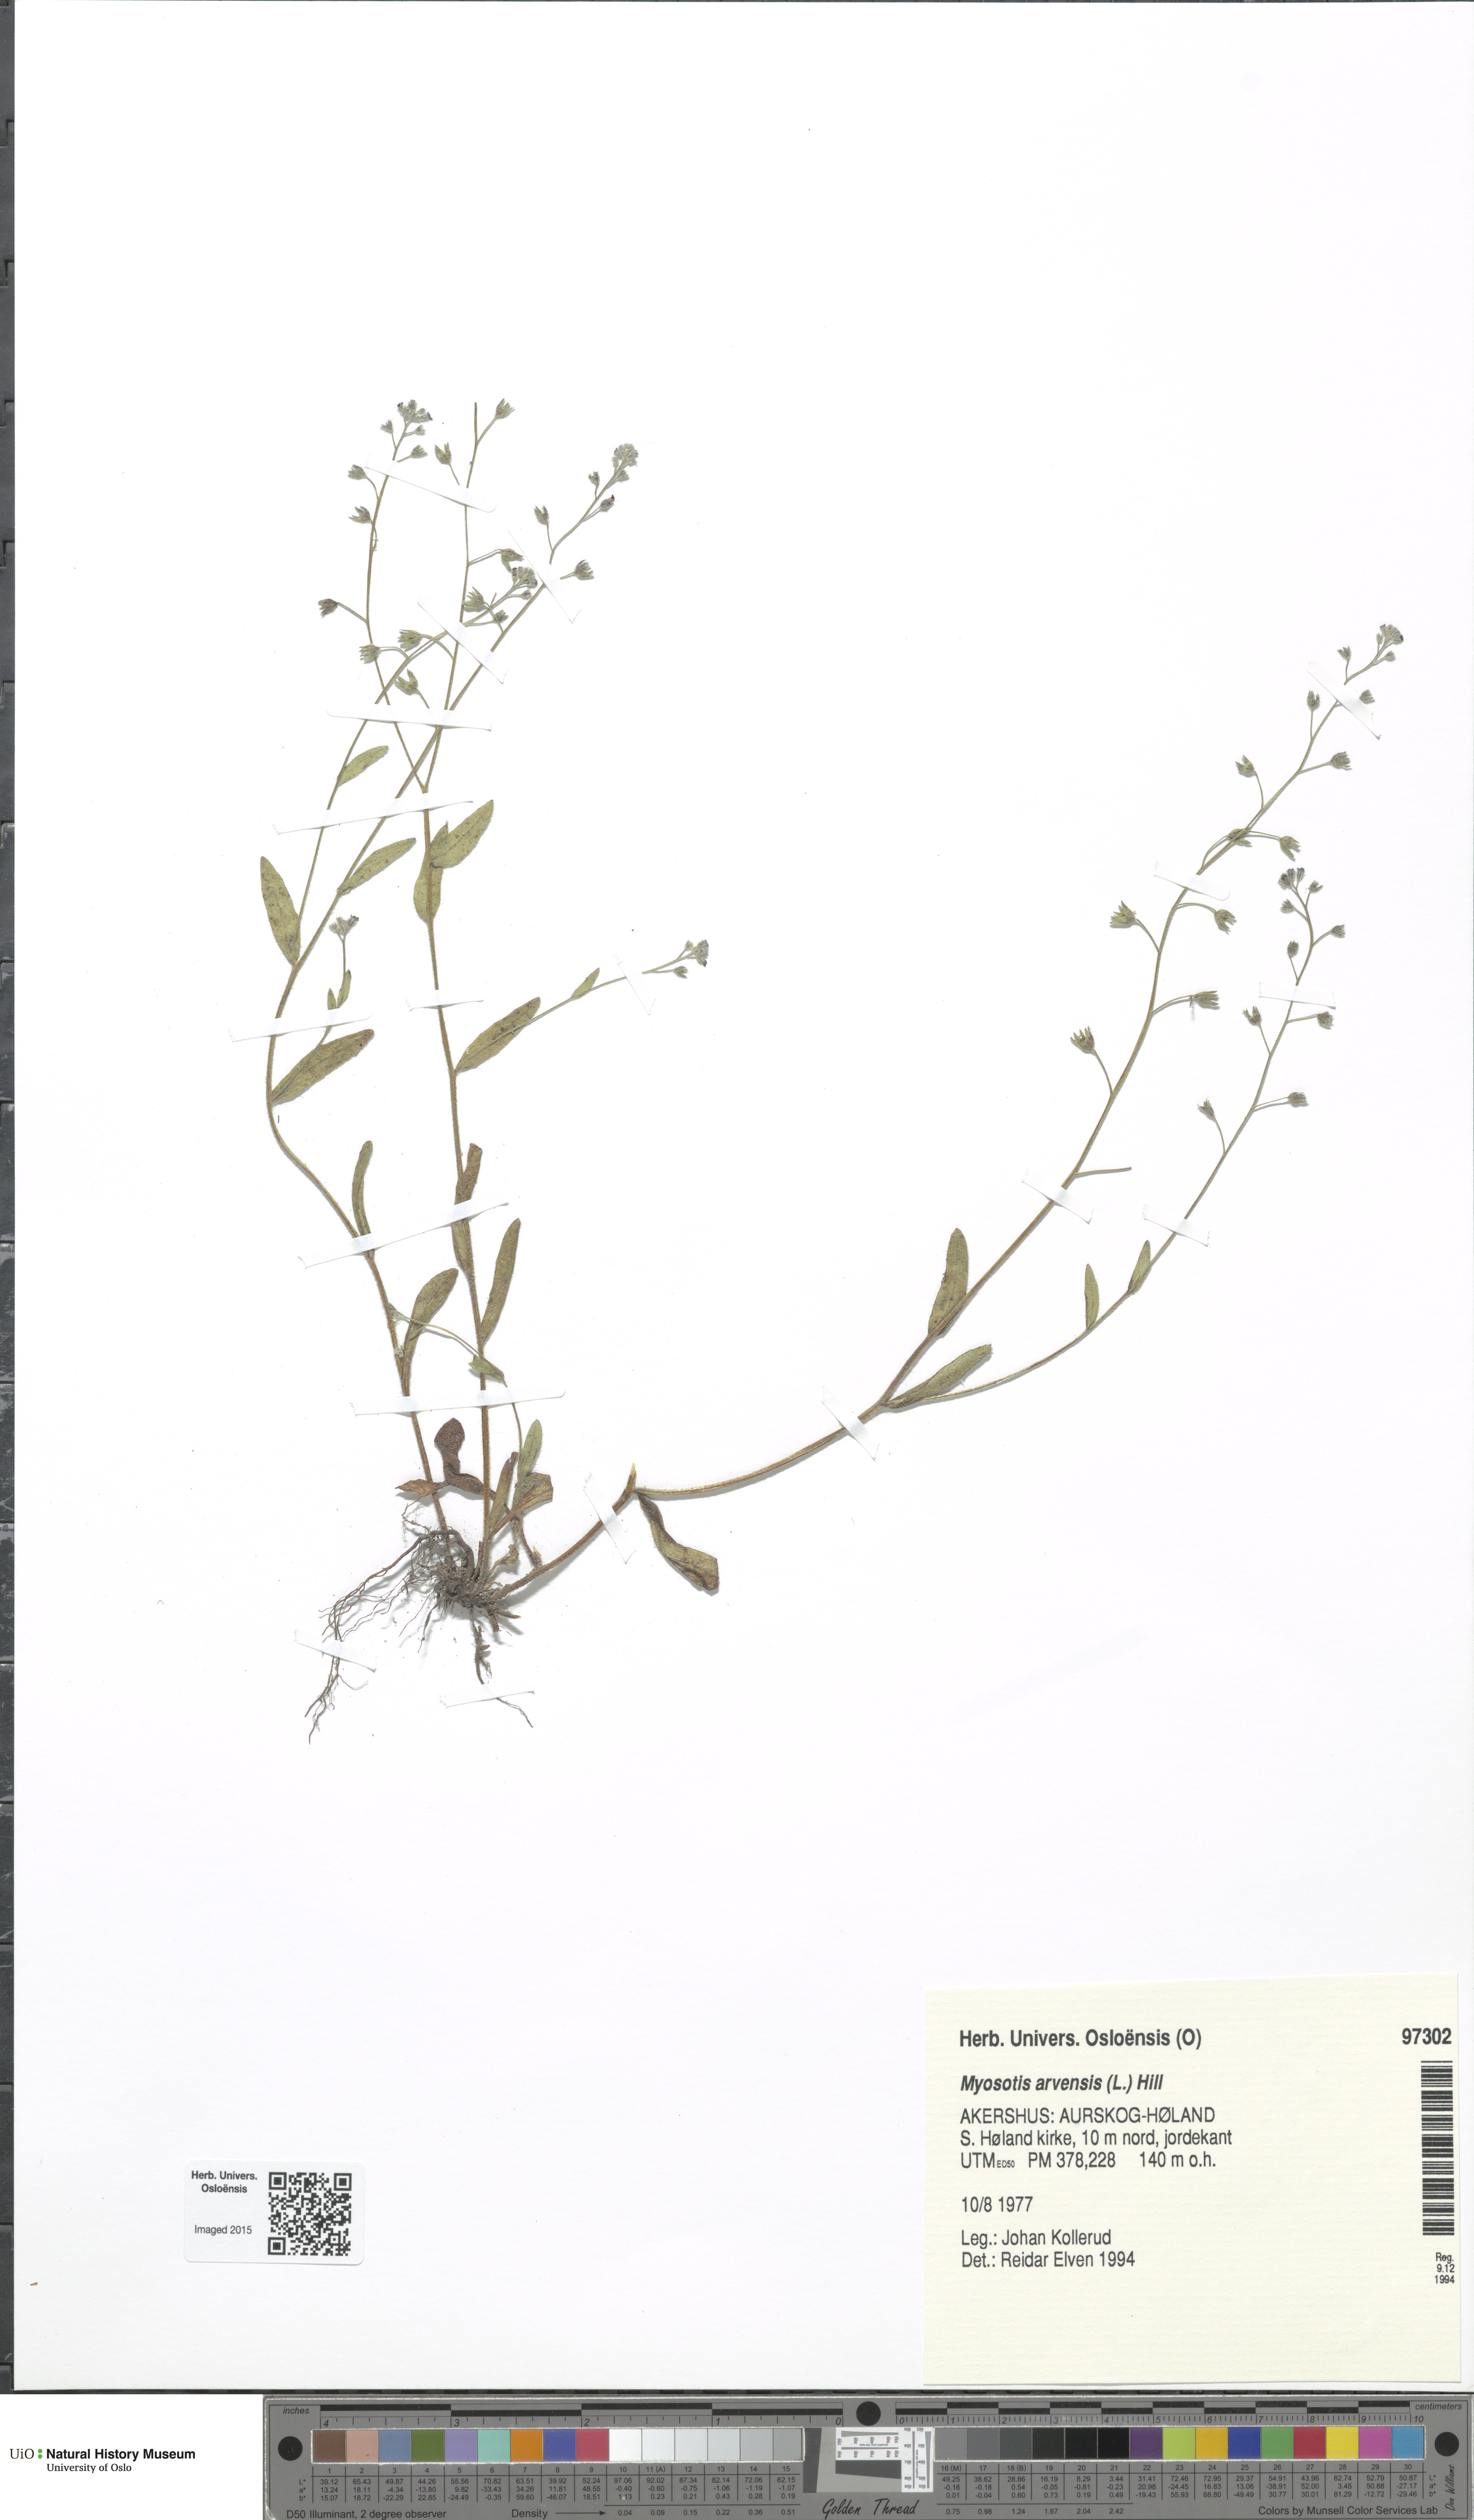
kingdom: Plantae
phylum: Tracheophyta
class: Magnoliopsida
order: Boraginales
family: Boraginaceae
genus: Myosotis
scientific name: Myosotis arvensis
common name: Field forget-me-not
